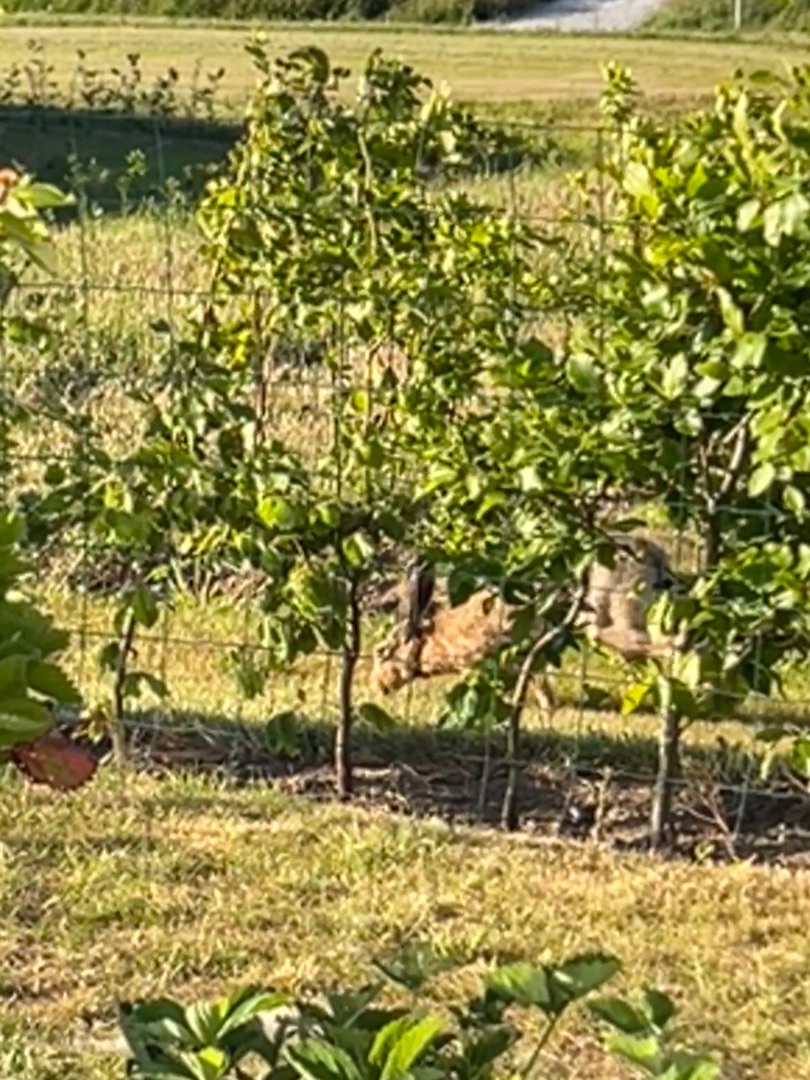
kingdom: Animalia
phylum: Chordata
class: Mammalia
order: Lagomorpha
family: Leporidae
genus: Lepus
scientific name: Lepus europaeus
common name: Hare
